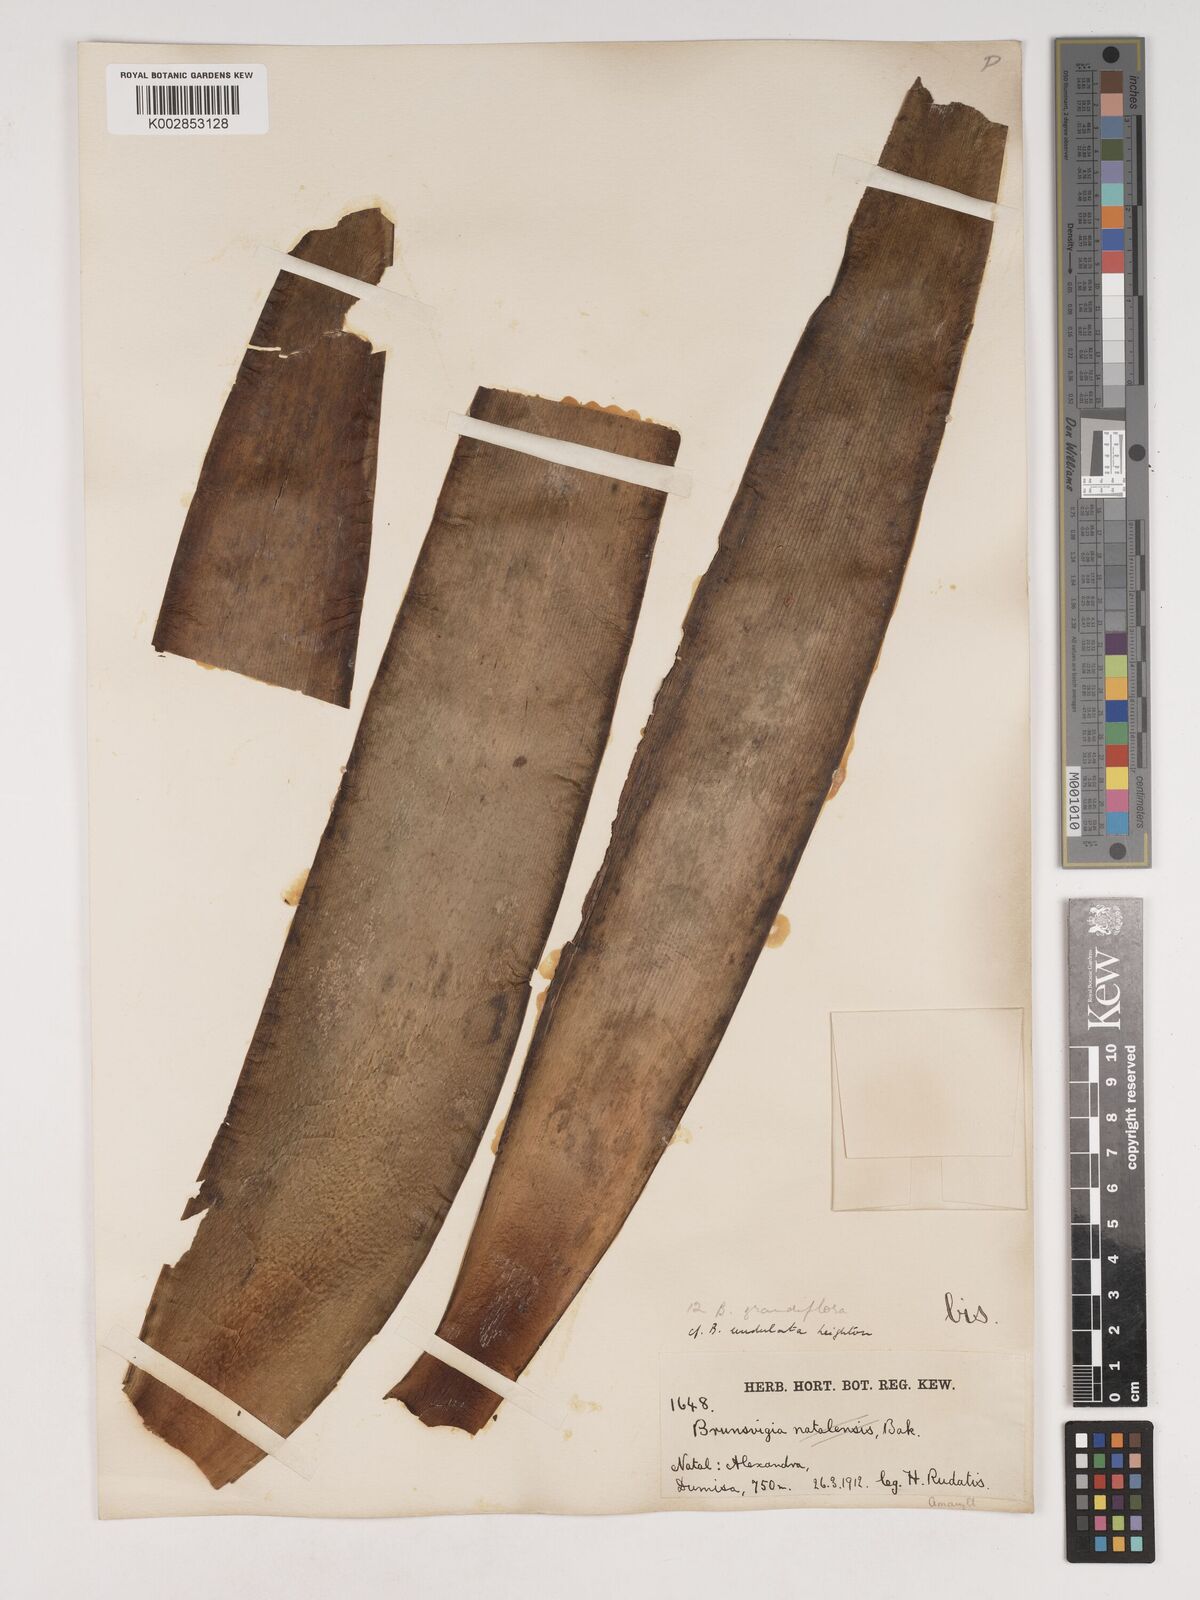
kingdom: Plantae
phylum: Tracheophyta
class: Liliopsida
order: Asparagales
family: Amaryllidaceae
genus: Brunsvigia
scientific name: Brunsvigia grandiflora
